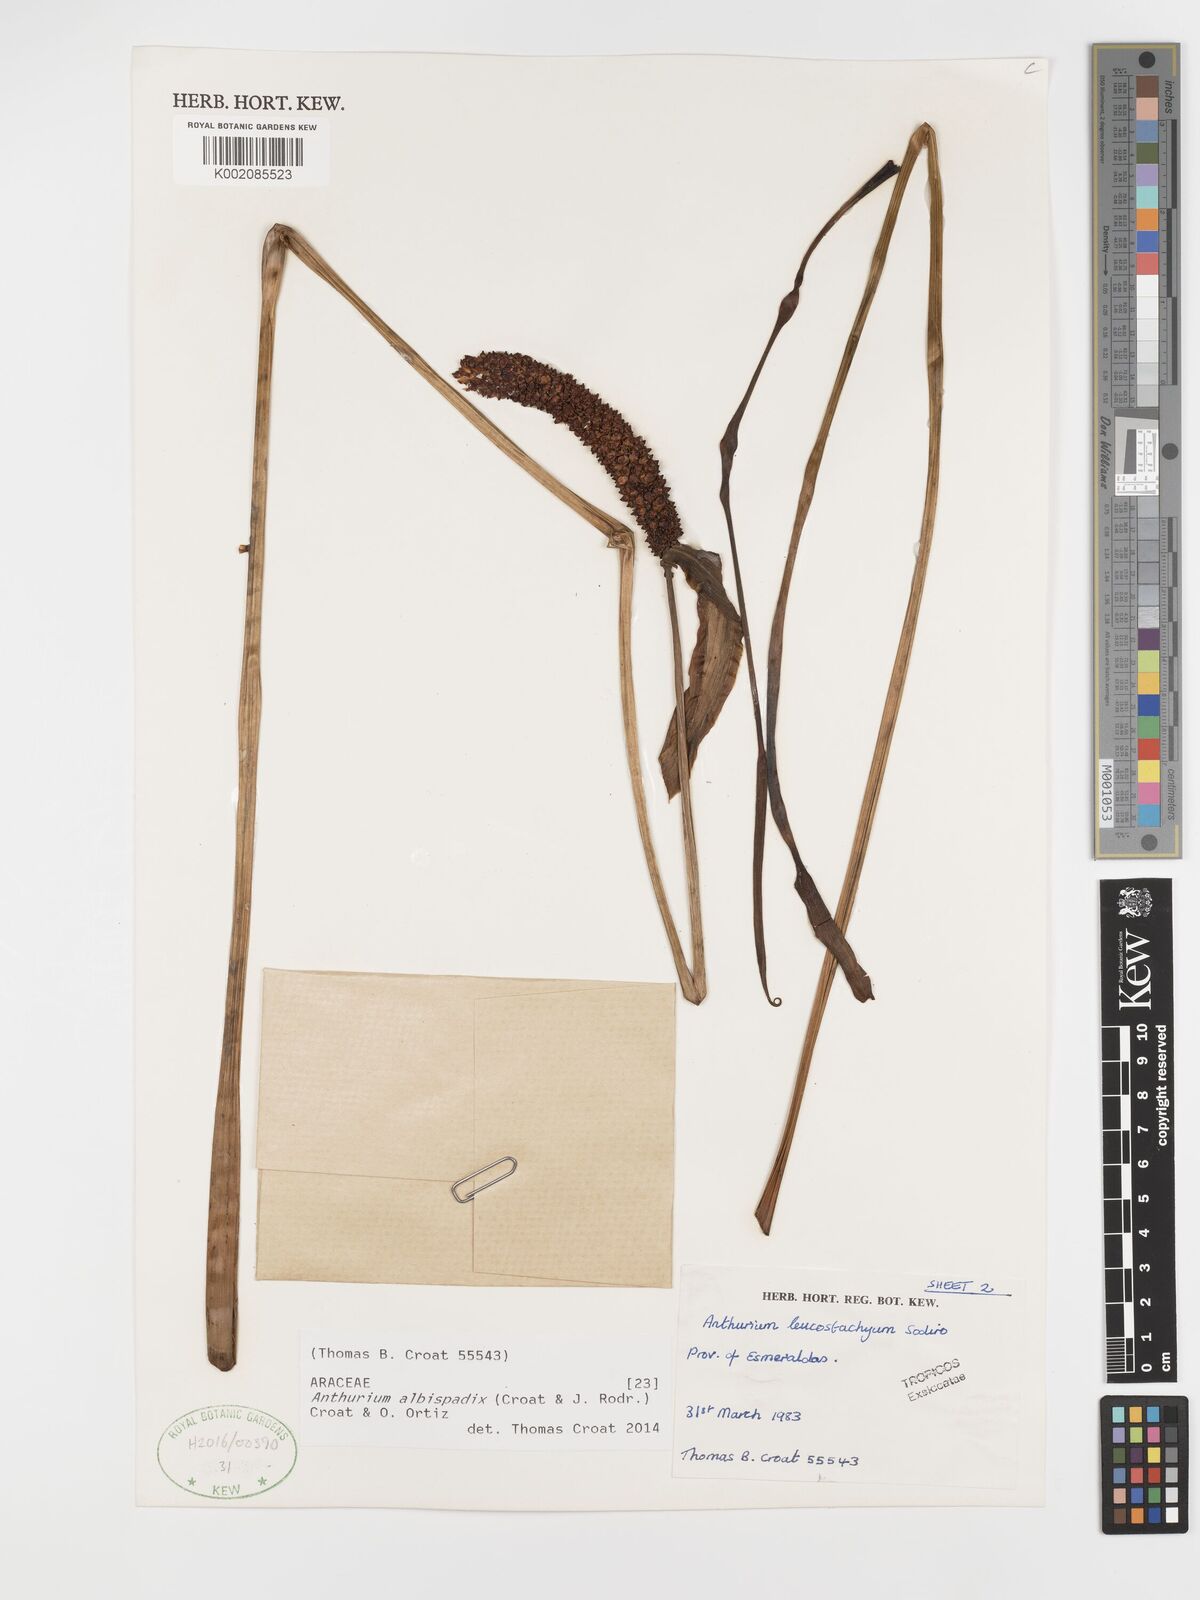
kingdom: Plantae
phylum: Tracheophyta
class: Liliopsida
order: Alismatales
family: Araceae
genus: Anthurium
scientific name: Anthurium albispadix
